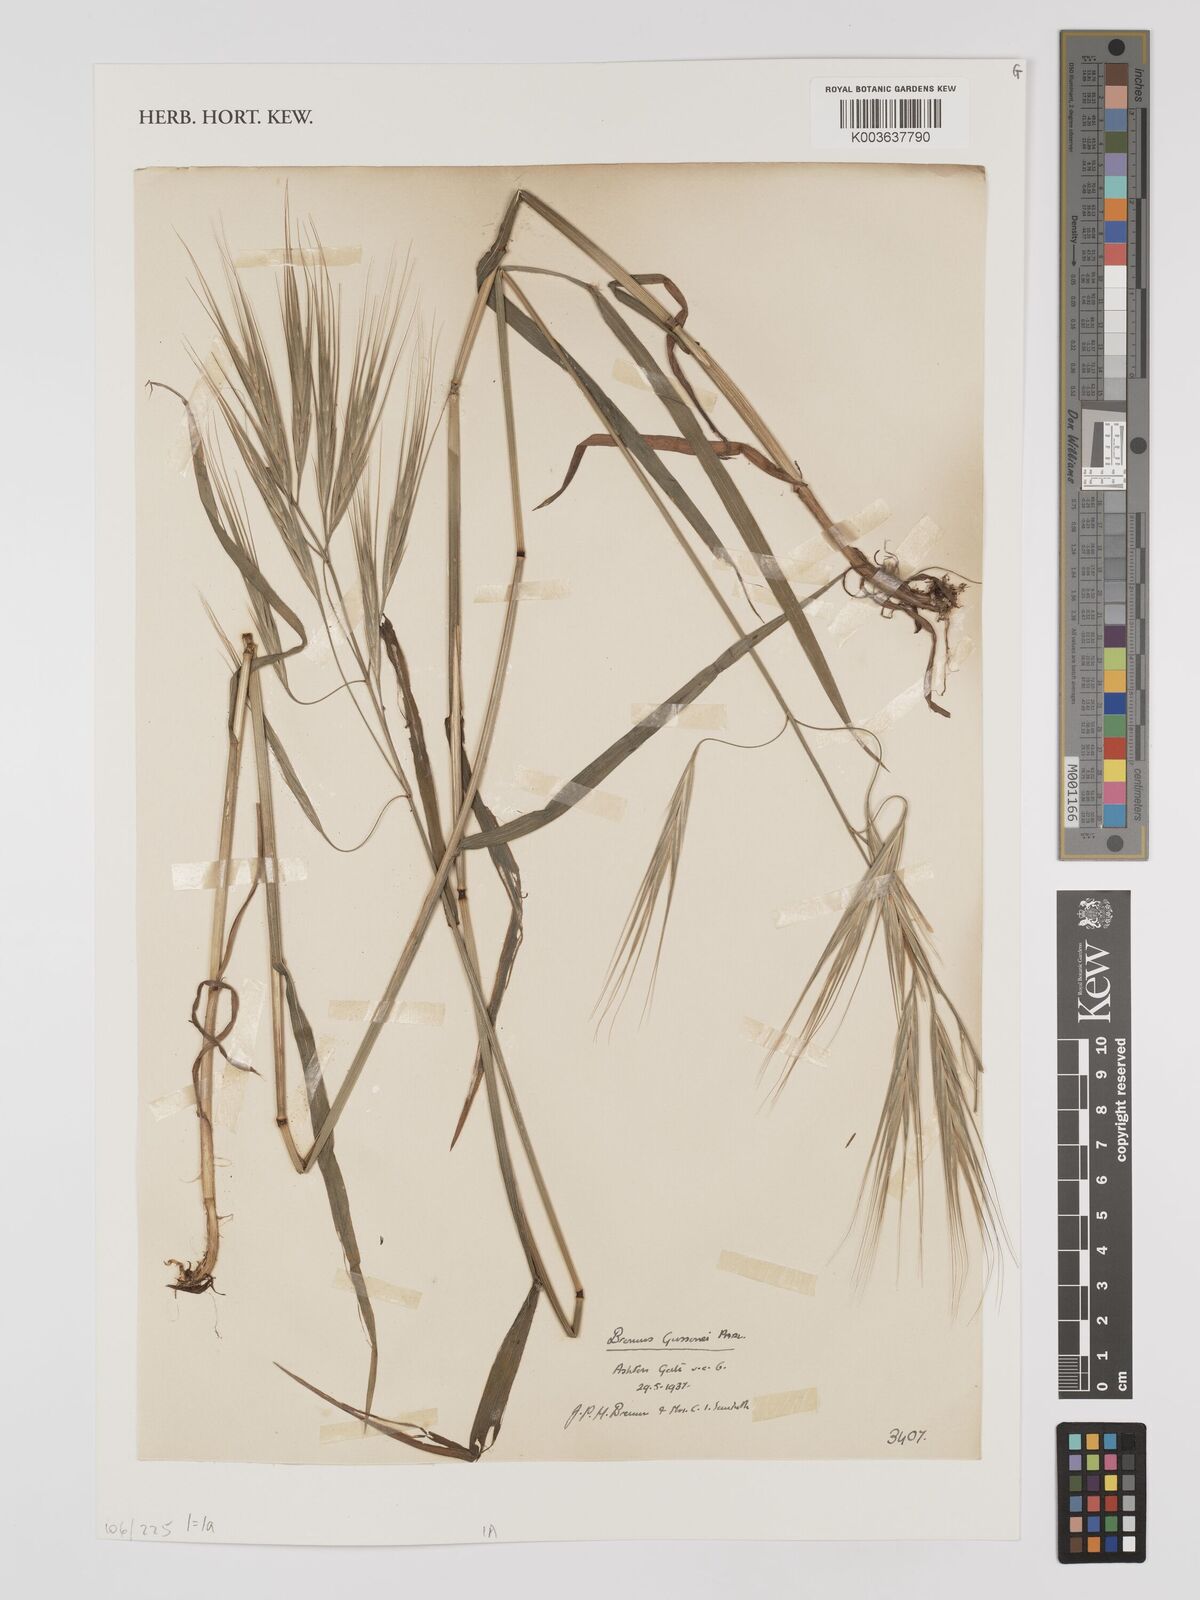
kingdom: Plantae
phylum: Tracheophyta
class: Liliopsida
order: Poales
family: Poaceae
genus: Bromus
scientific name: Bromus
